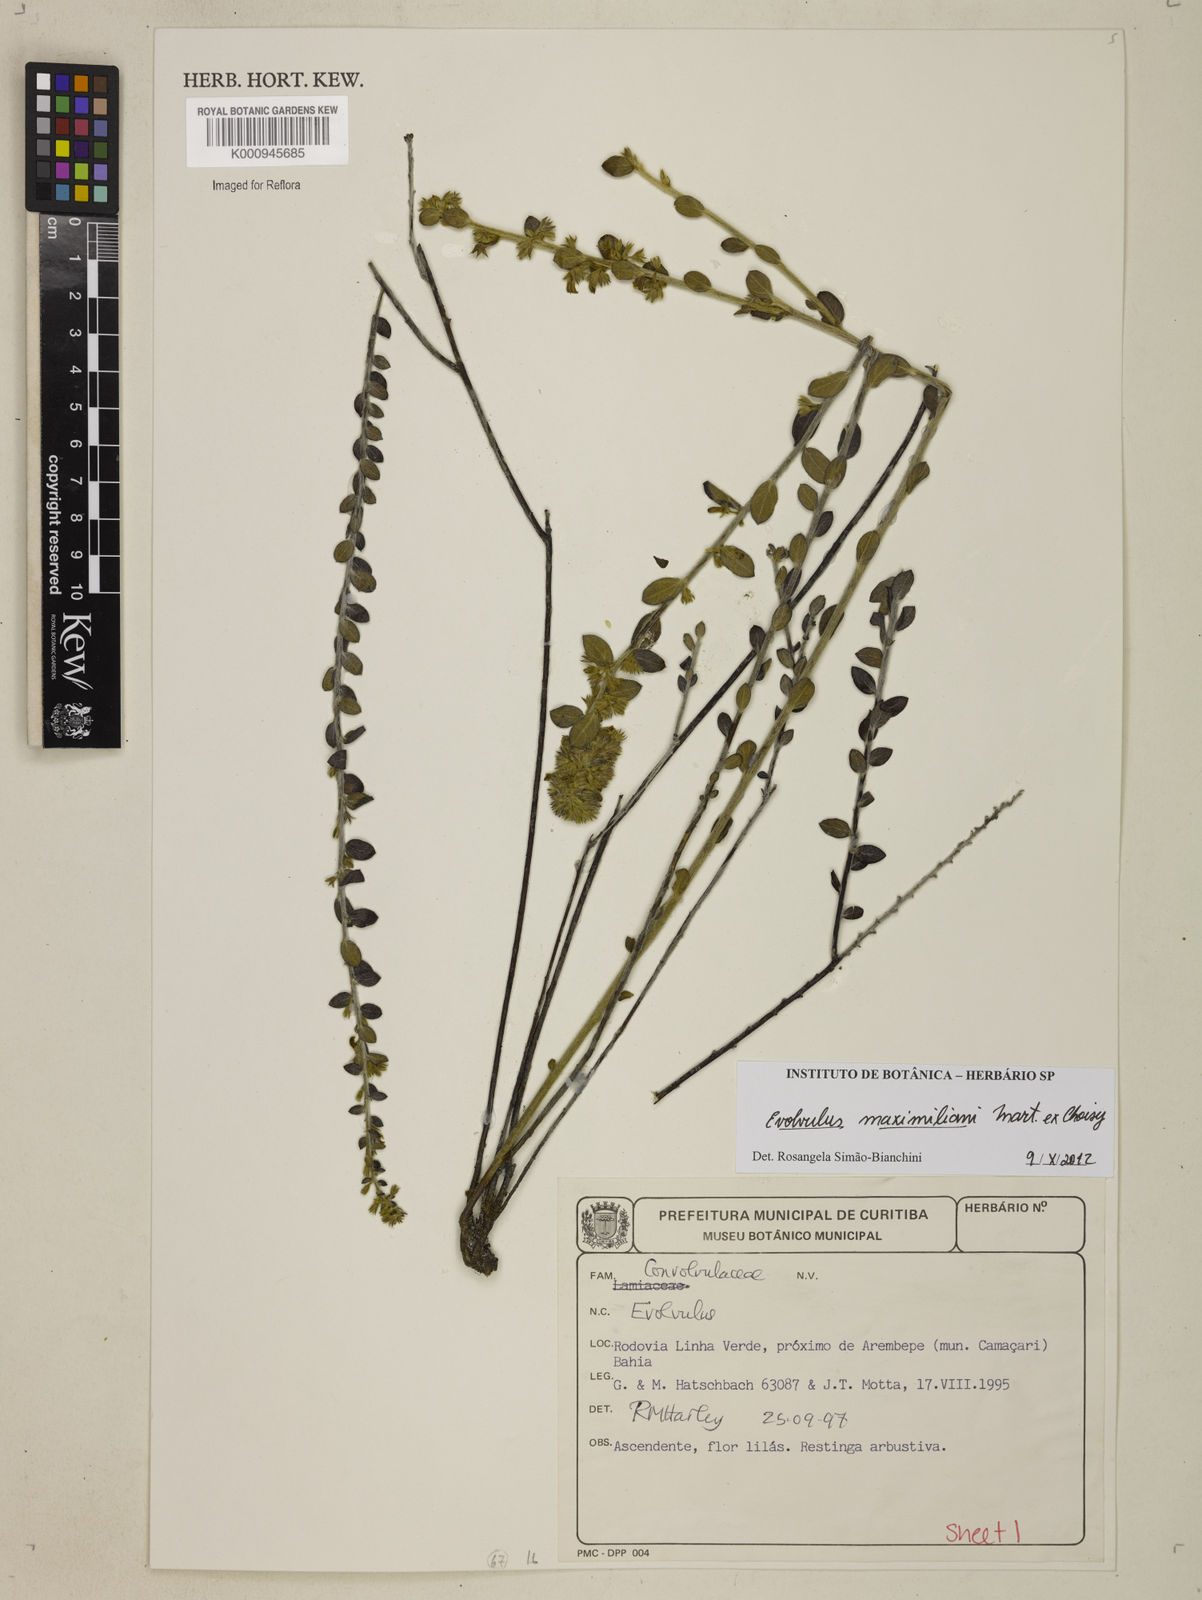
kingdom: Plantae
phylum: Tracheophyta
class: Magnoliopsida
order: Solanales
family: Convolvulaceae
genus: Evolvulus
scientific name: Evolvulus maximiliani
